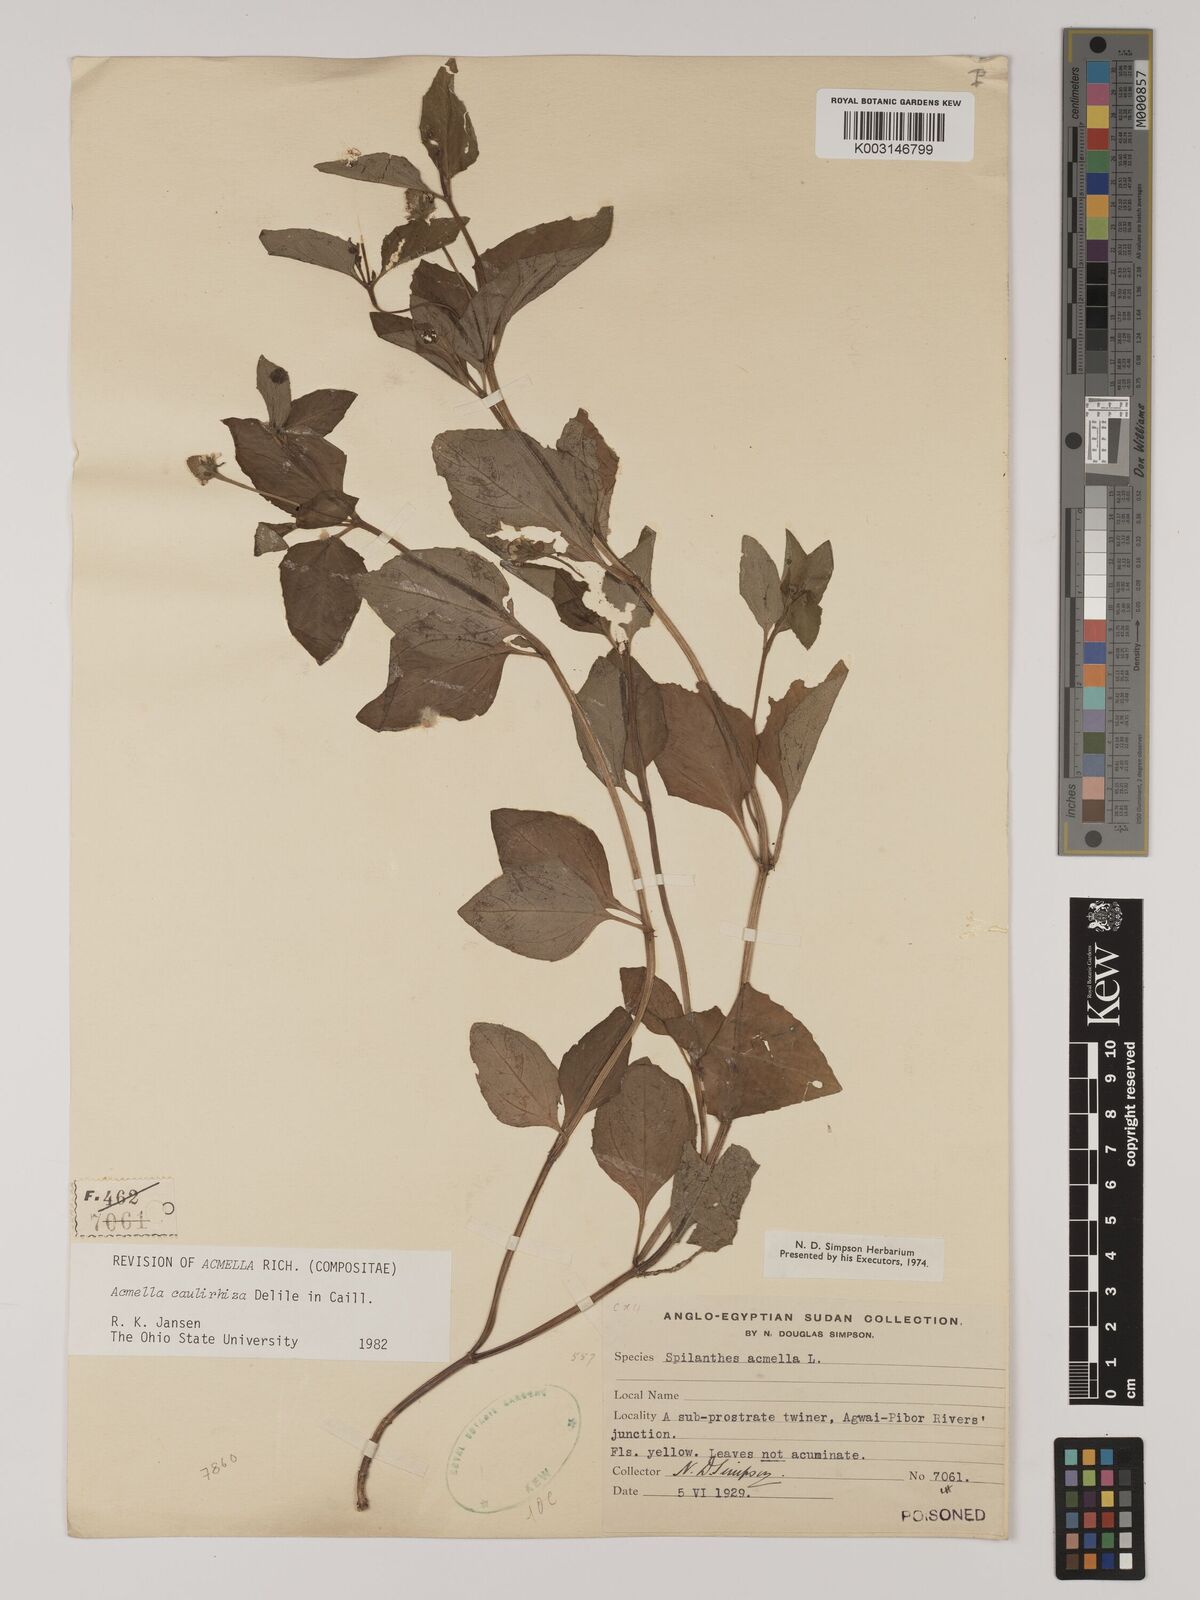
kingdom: Plantae
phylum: Tracheophyta
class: Magnoliopsida
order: Asterales
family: Asteraceae
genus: Acmella
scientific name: Acmella caulirhiza
